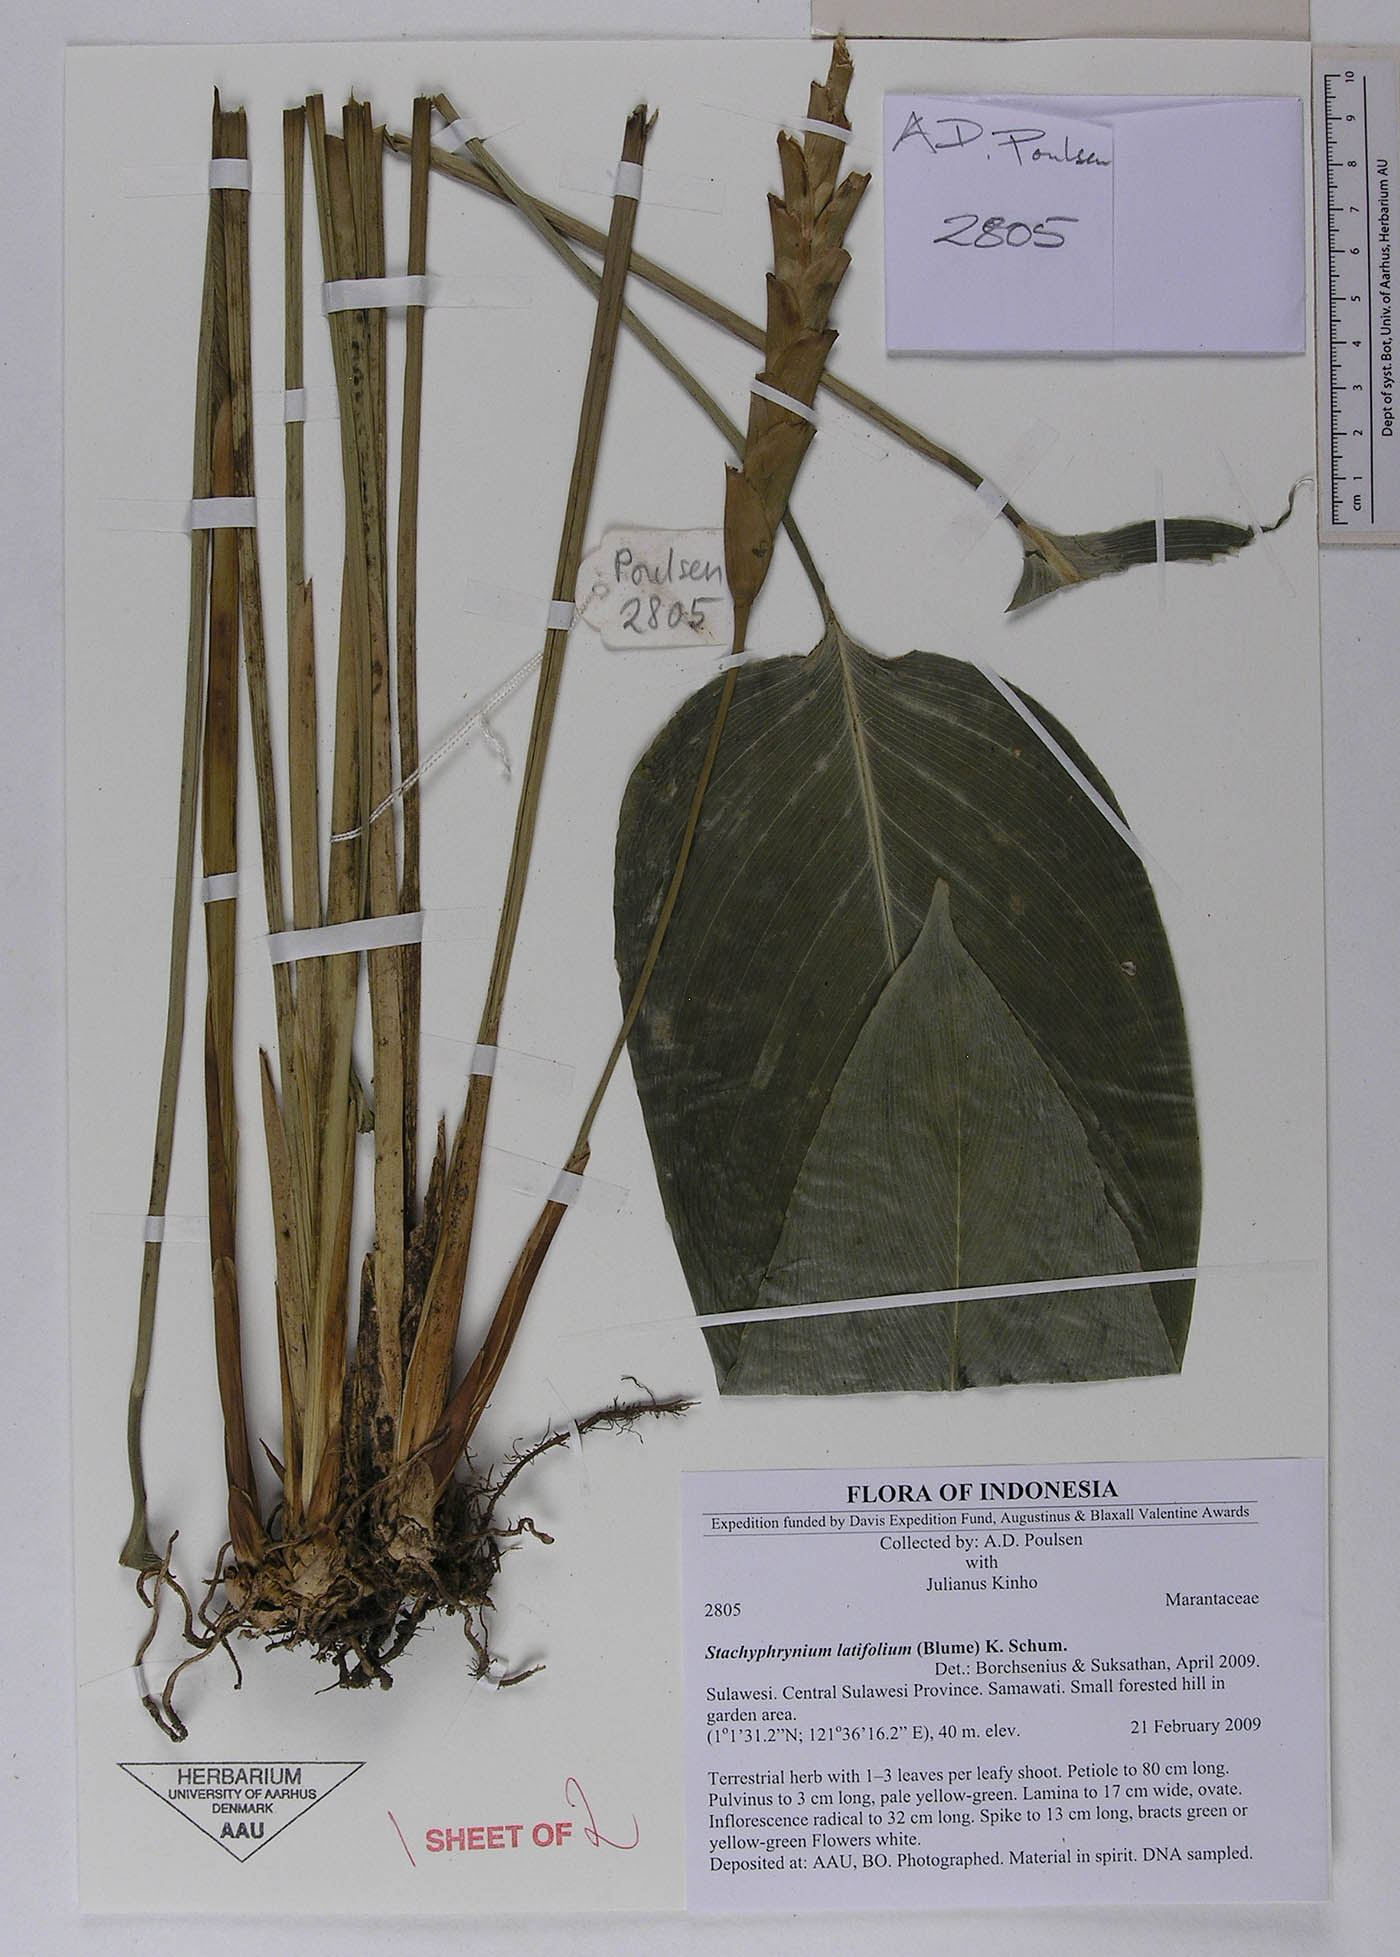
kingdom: Plantae
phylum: Tracheophyta
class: Liliopsida
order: Zingiberales
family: Marantaceae
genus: Stachyphrynium
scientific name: Stachyphrynium latifolium
